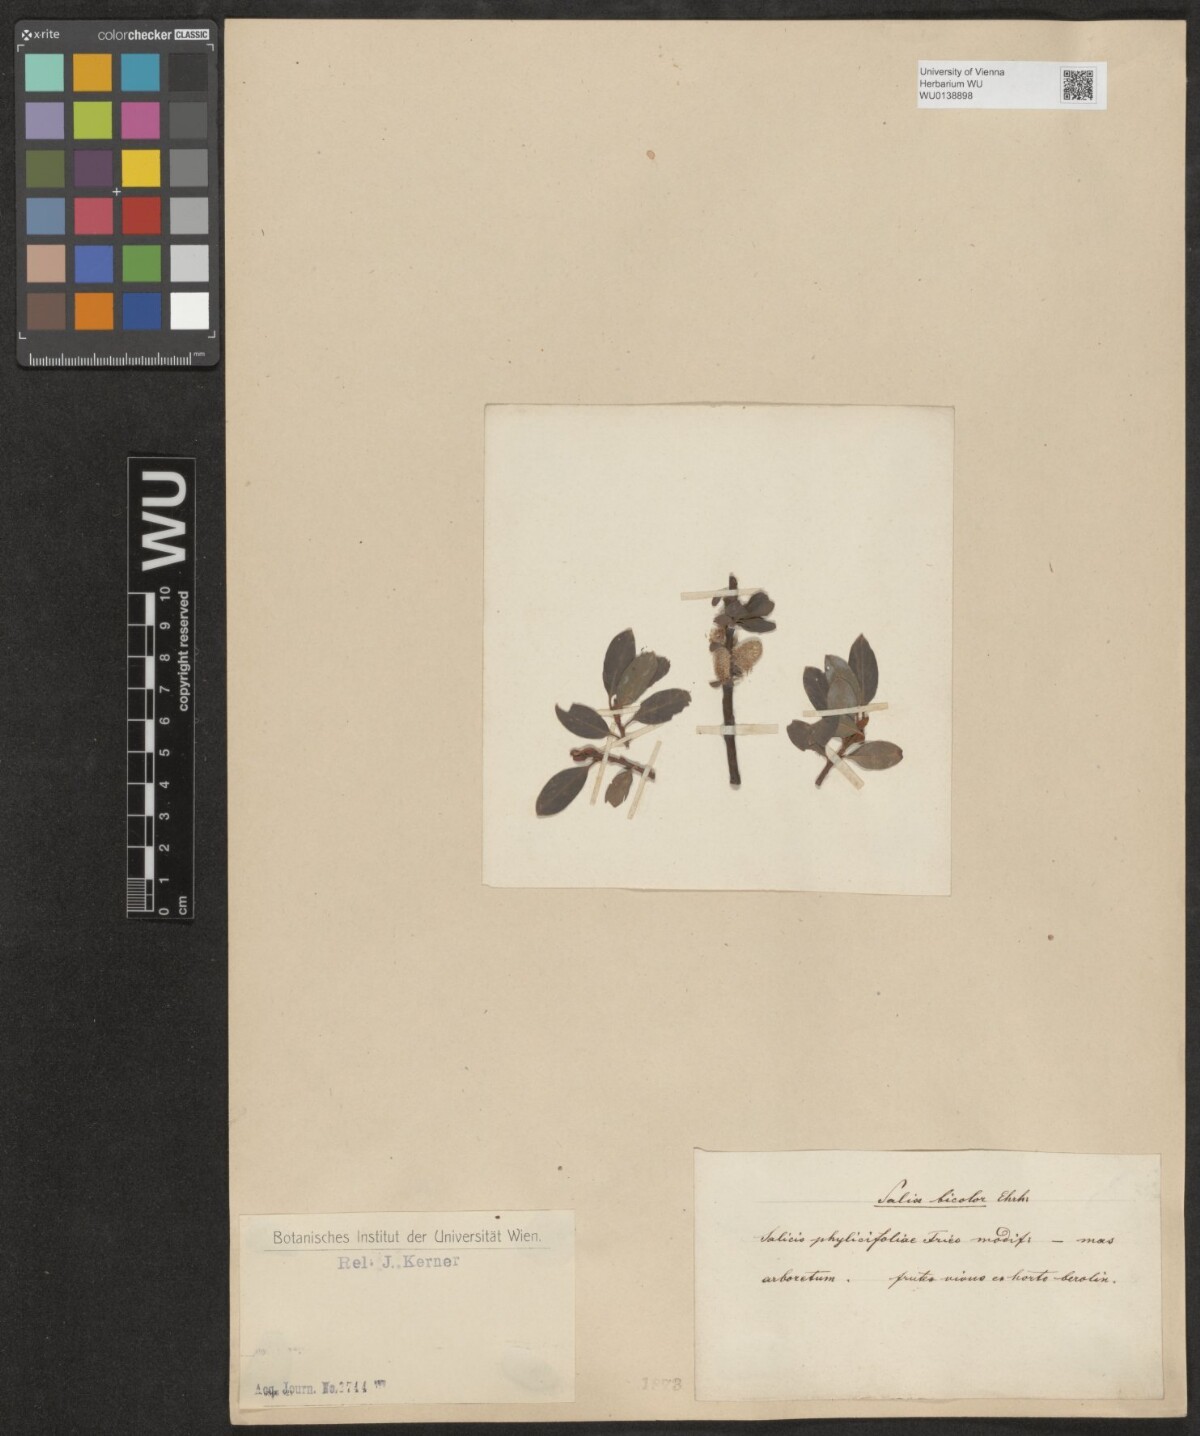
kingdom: Plantae
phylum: Tracheophyta
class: Magnoliopsida
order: Malpighiales
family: Salicaceae
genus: Salix
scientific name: Salix phylicifolia
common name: Tea-leaved willow
